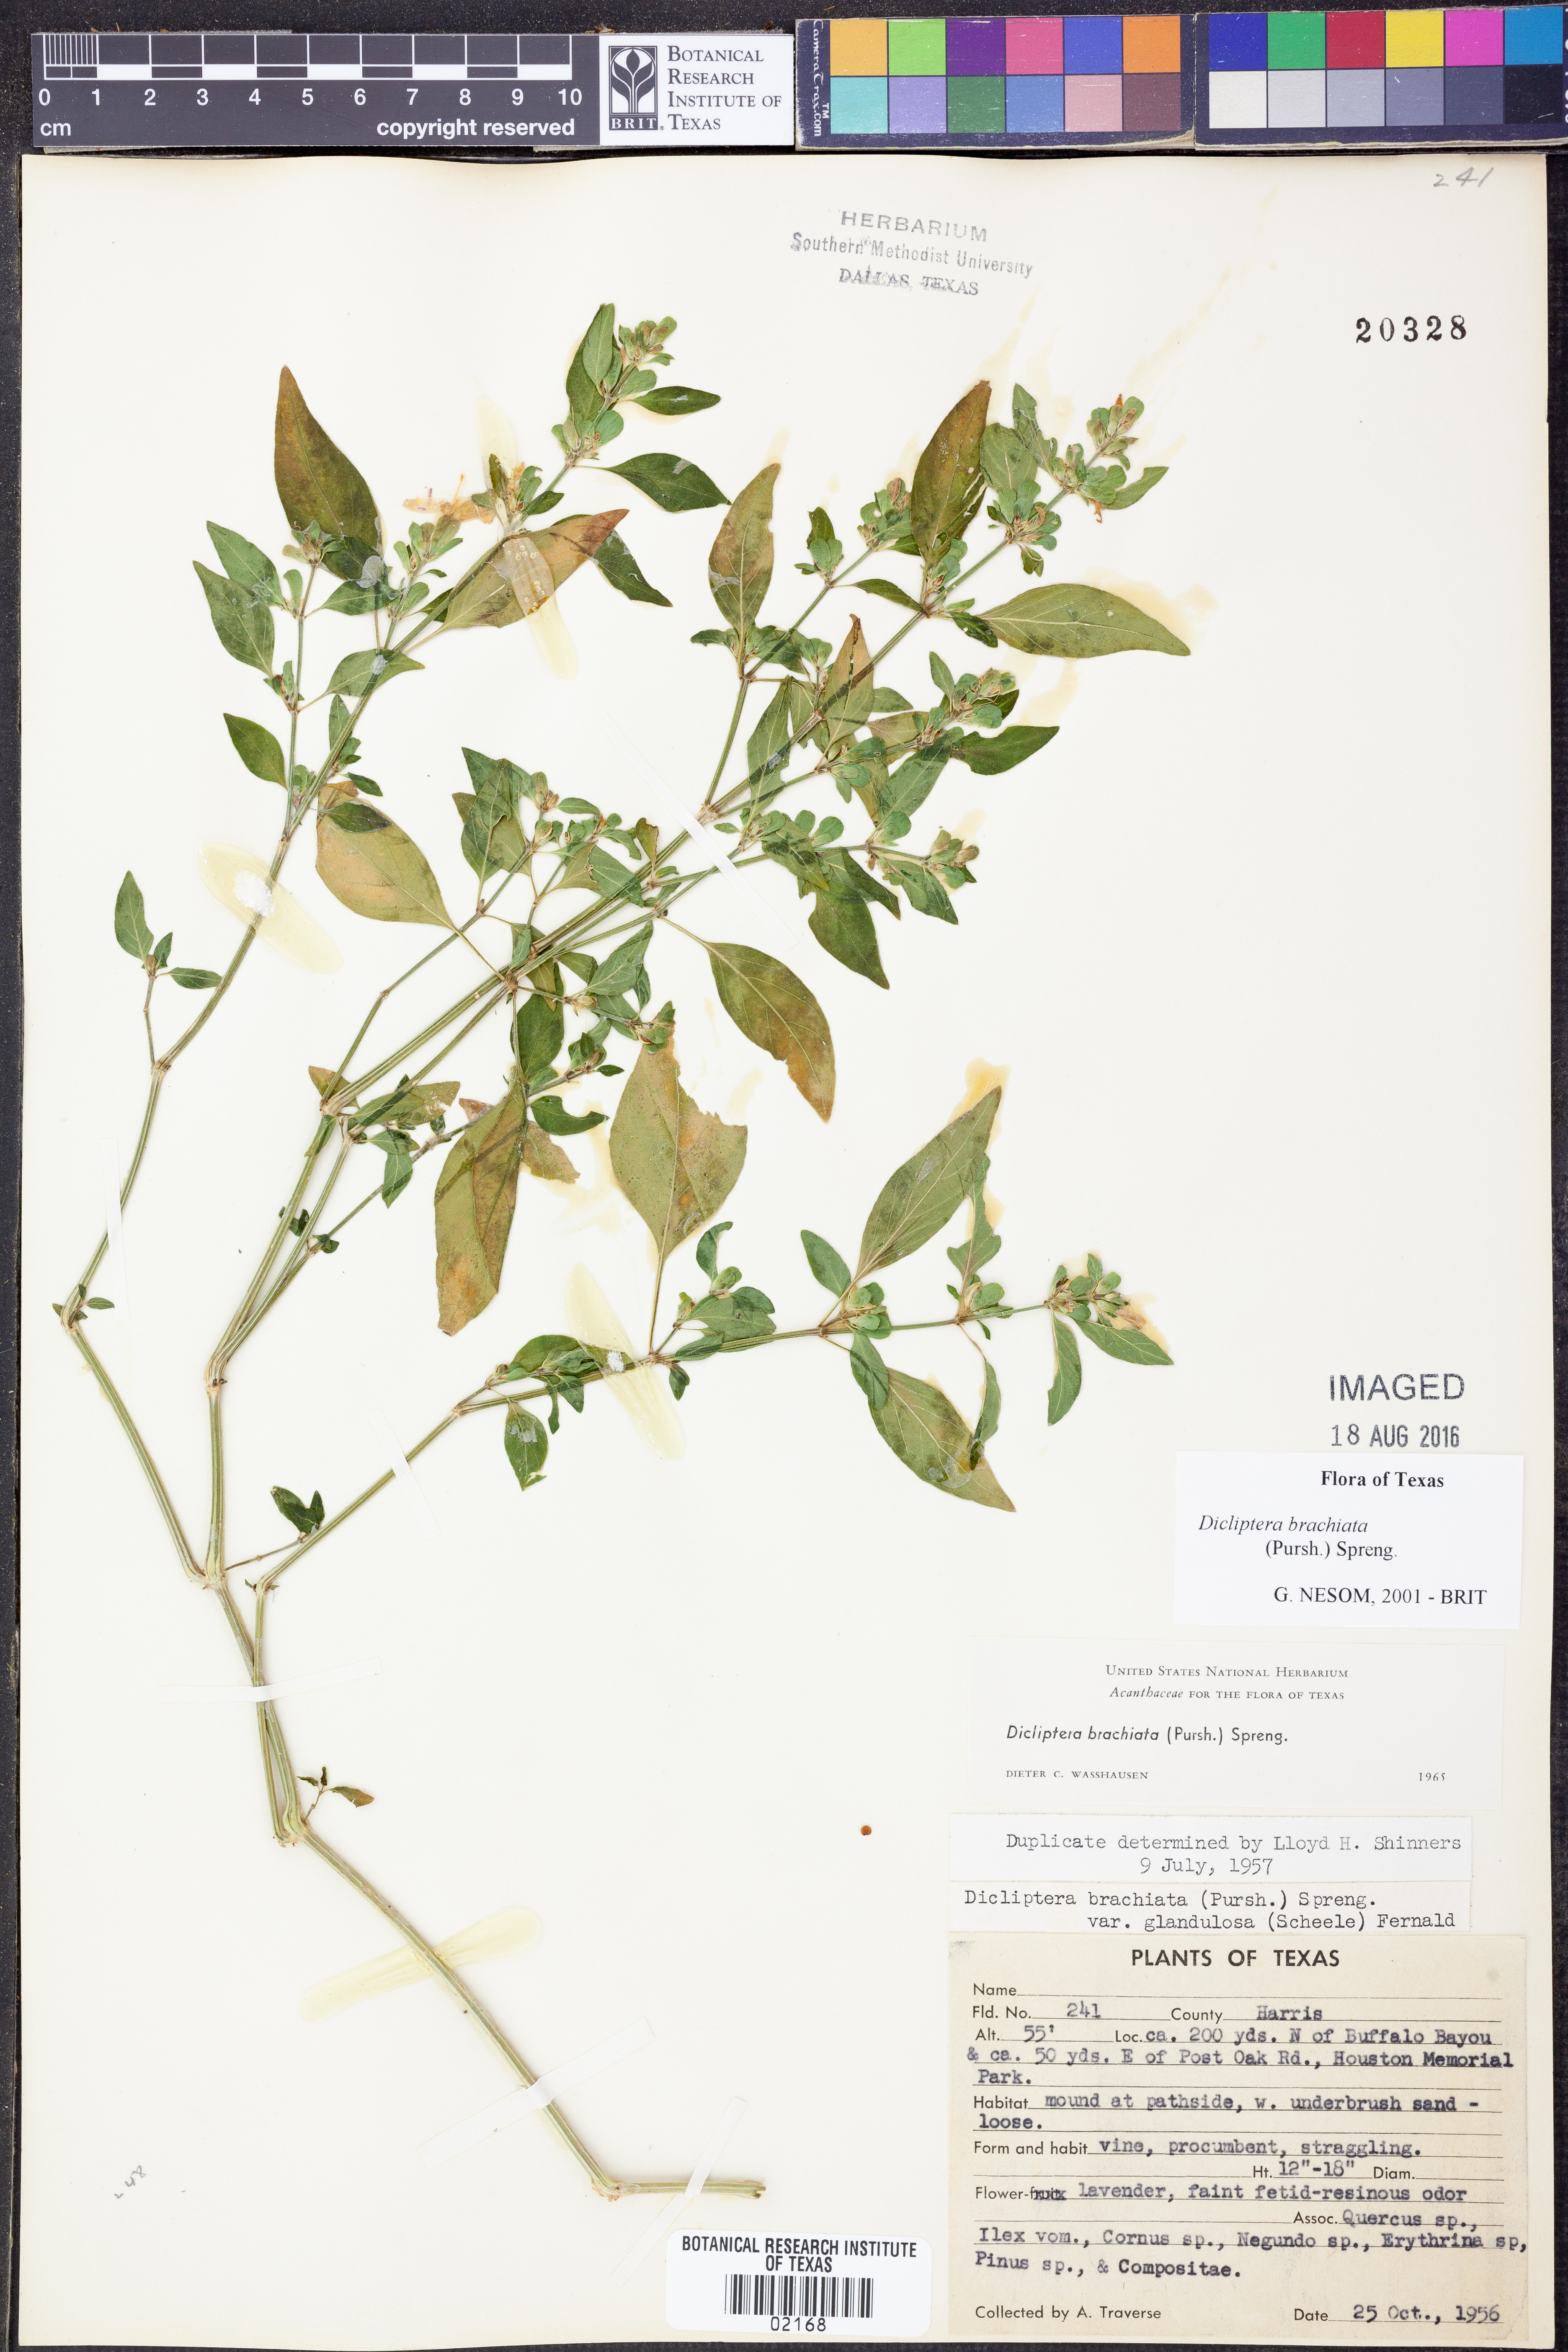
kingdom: Plantae
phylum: Tracheophyta
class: Magnoliopsida
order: Lamiales
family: Acanthaceae
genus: Dicliptera
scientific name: Dicliptera brachiata
